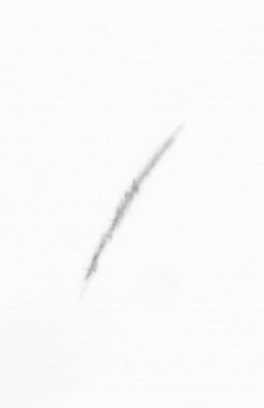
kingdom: Chromista
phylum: Ochrophyta
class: Bacillariophyceae
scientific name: Bacillariophyceae
